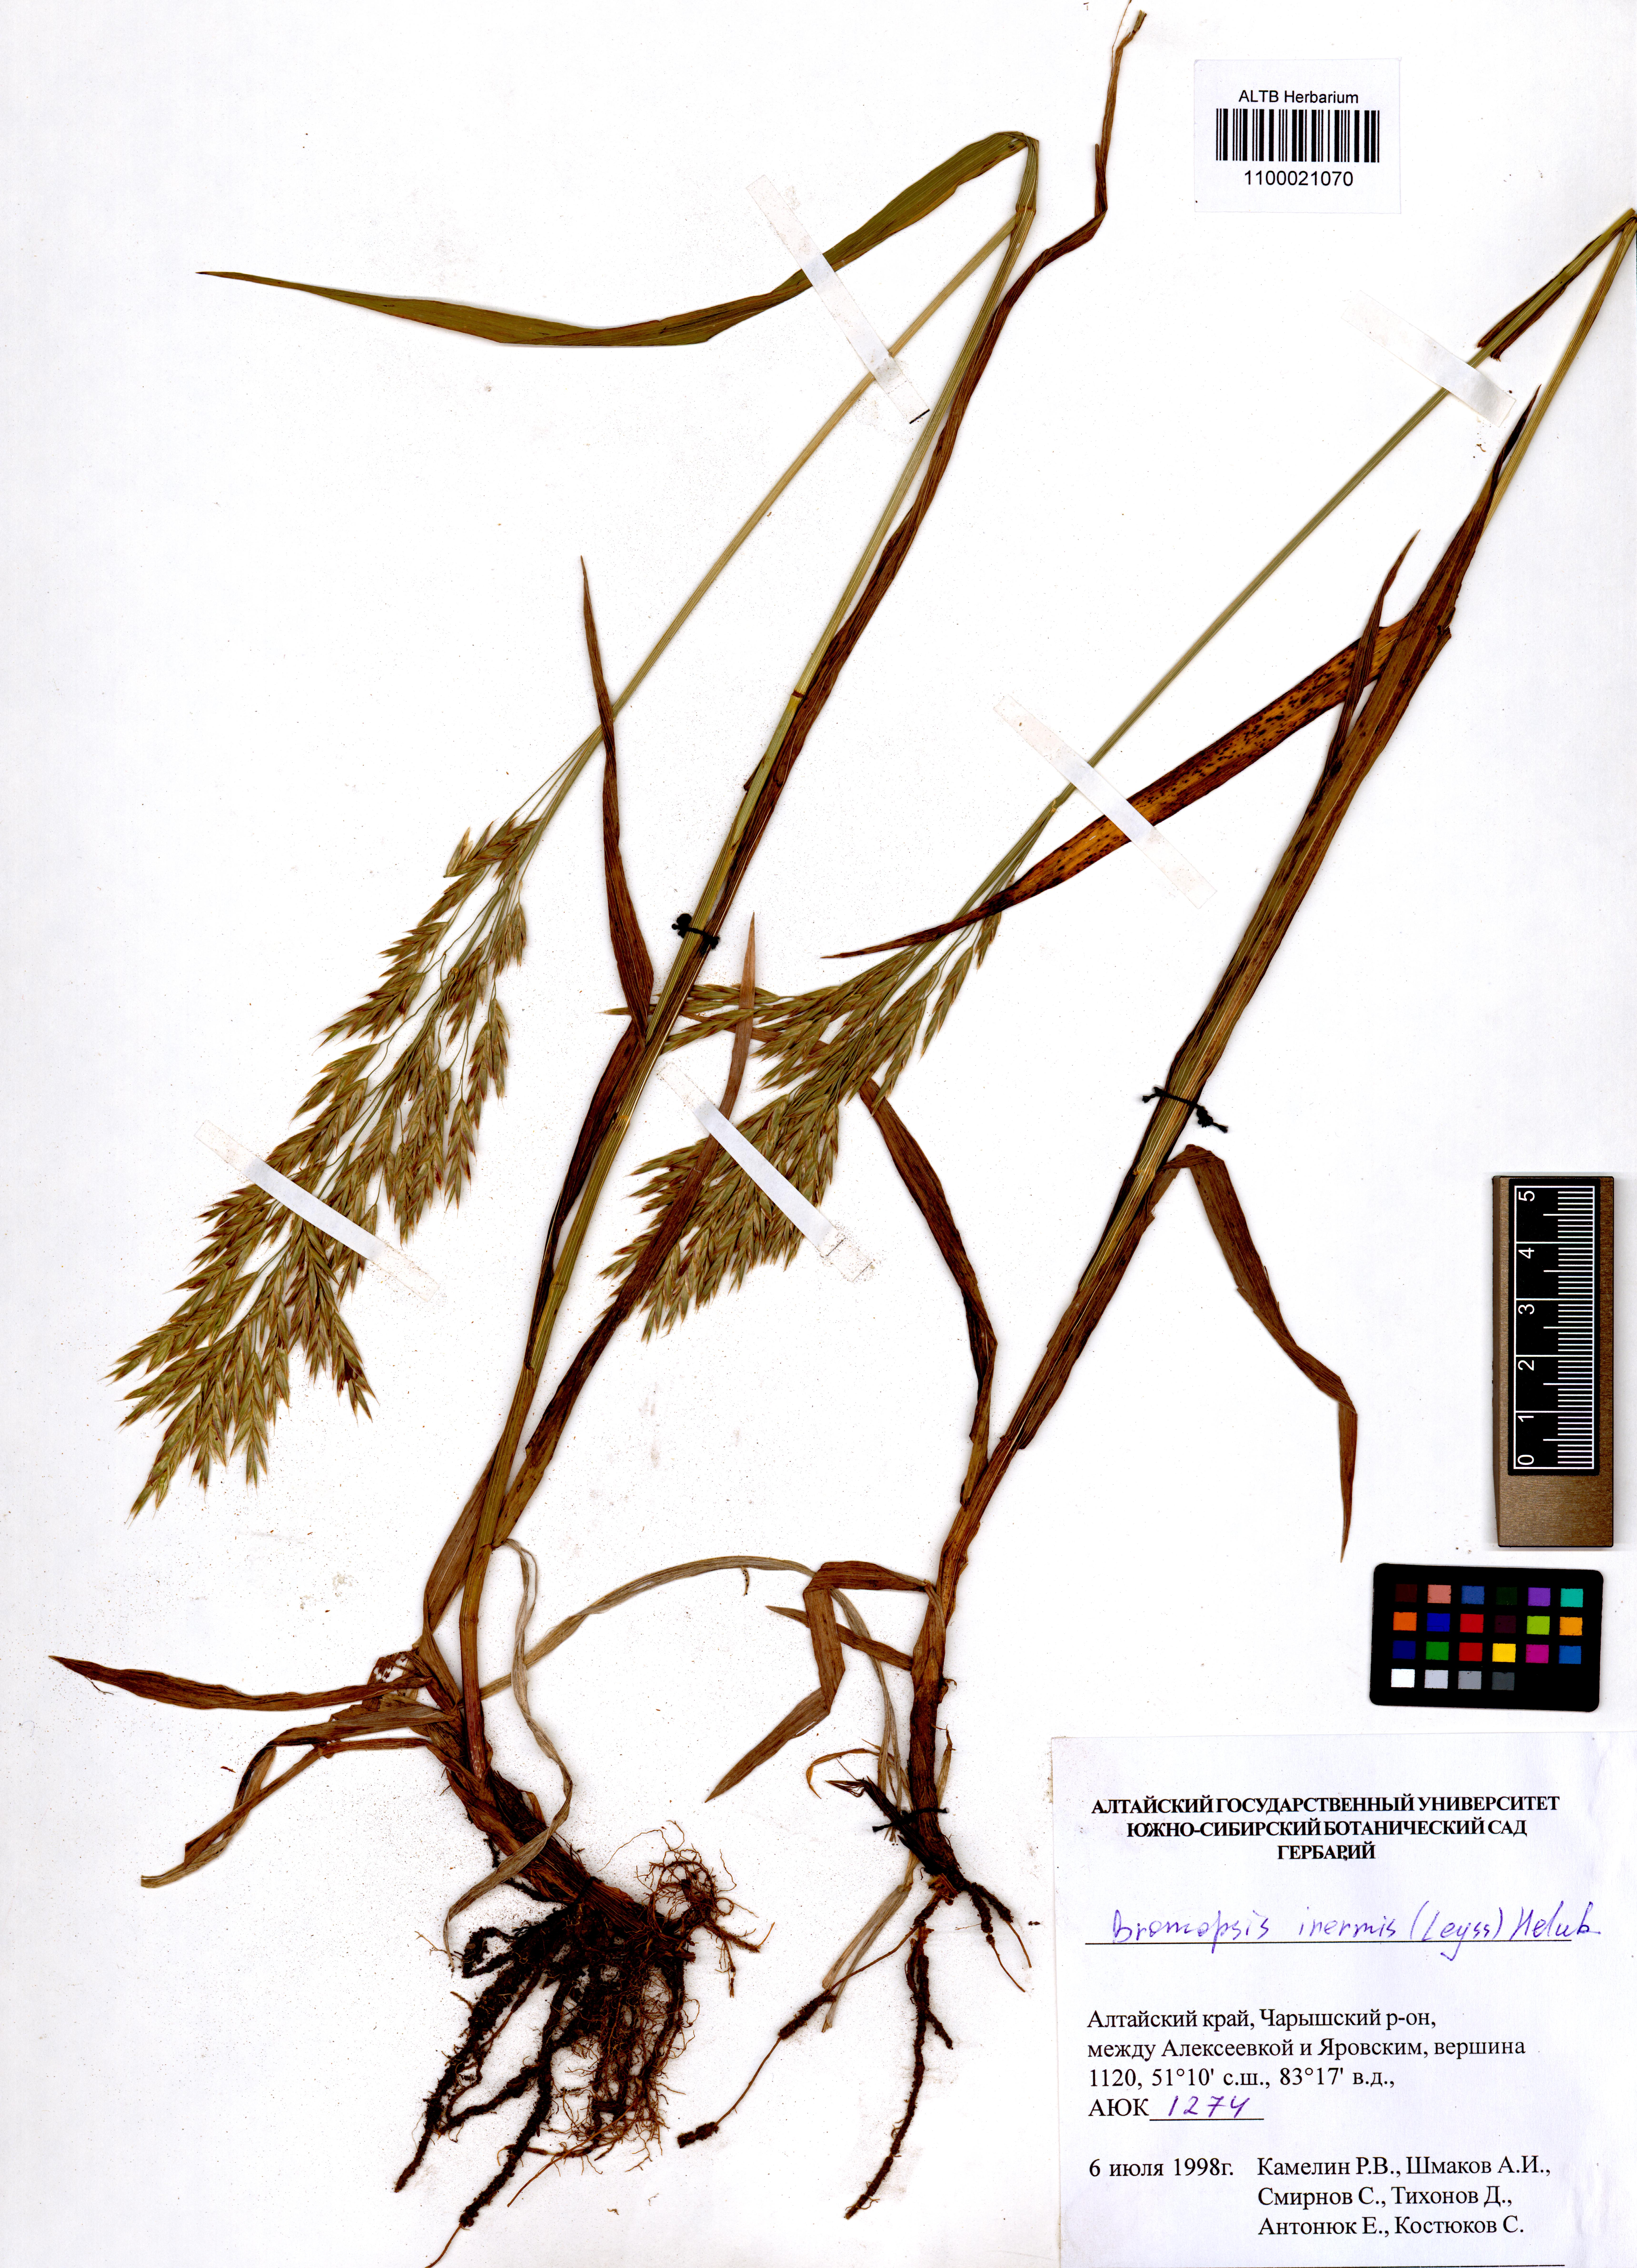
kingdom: Plantae
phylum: Tracheophyta
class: Liliopsida
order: Poales
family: Poaceae
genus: Bromus
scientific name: Bromus inermis
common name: Smooth brome
